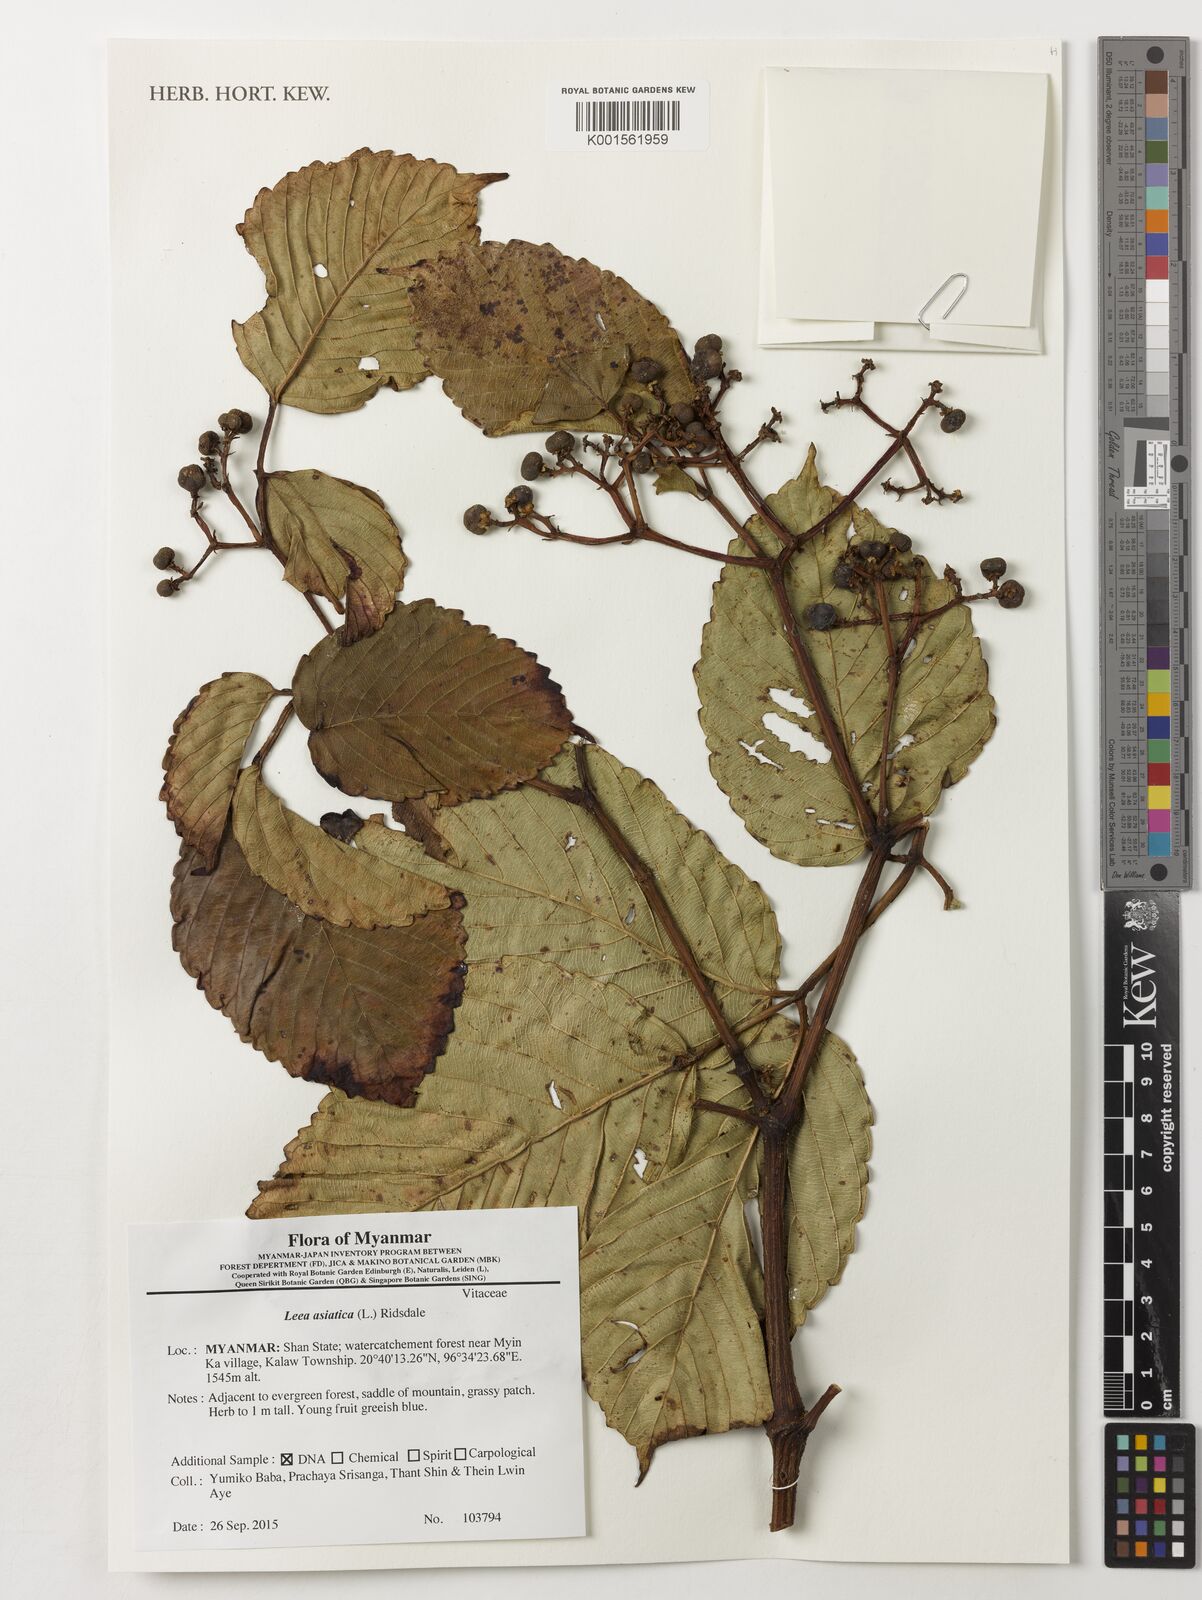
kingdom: Plantae
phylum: Tracheophyta
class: Magnoliopsida
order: Vitales
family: Vitaceae
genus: Leea
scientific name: Leea asiatica
